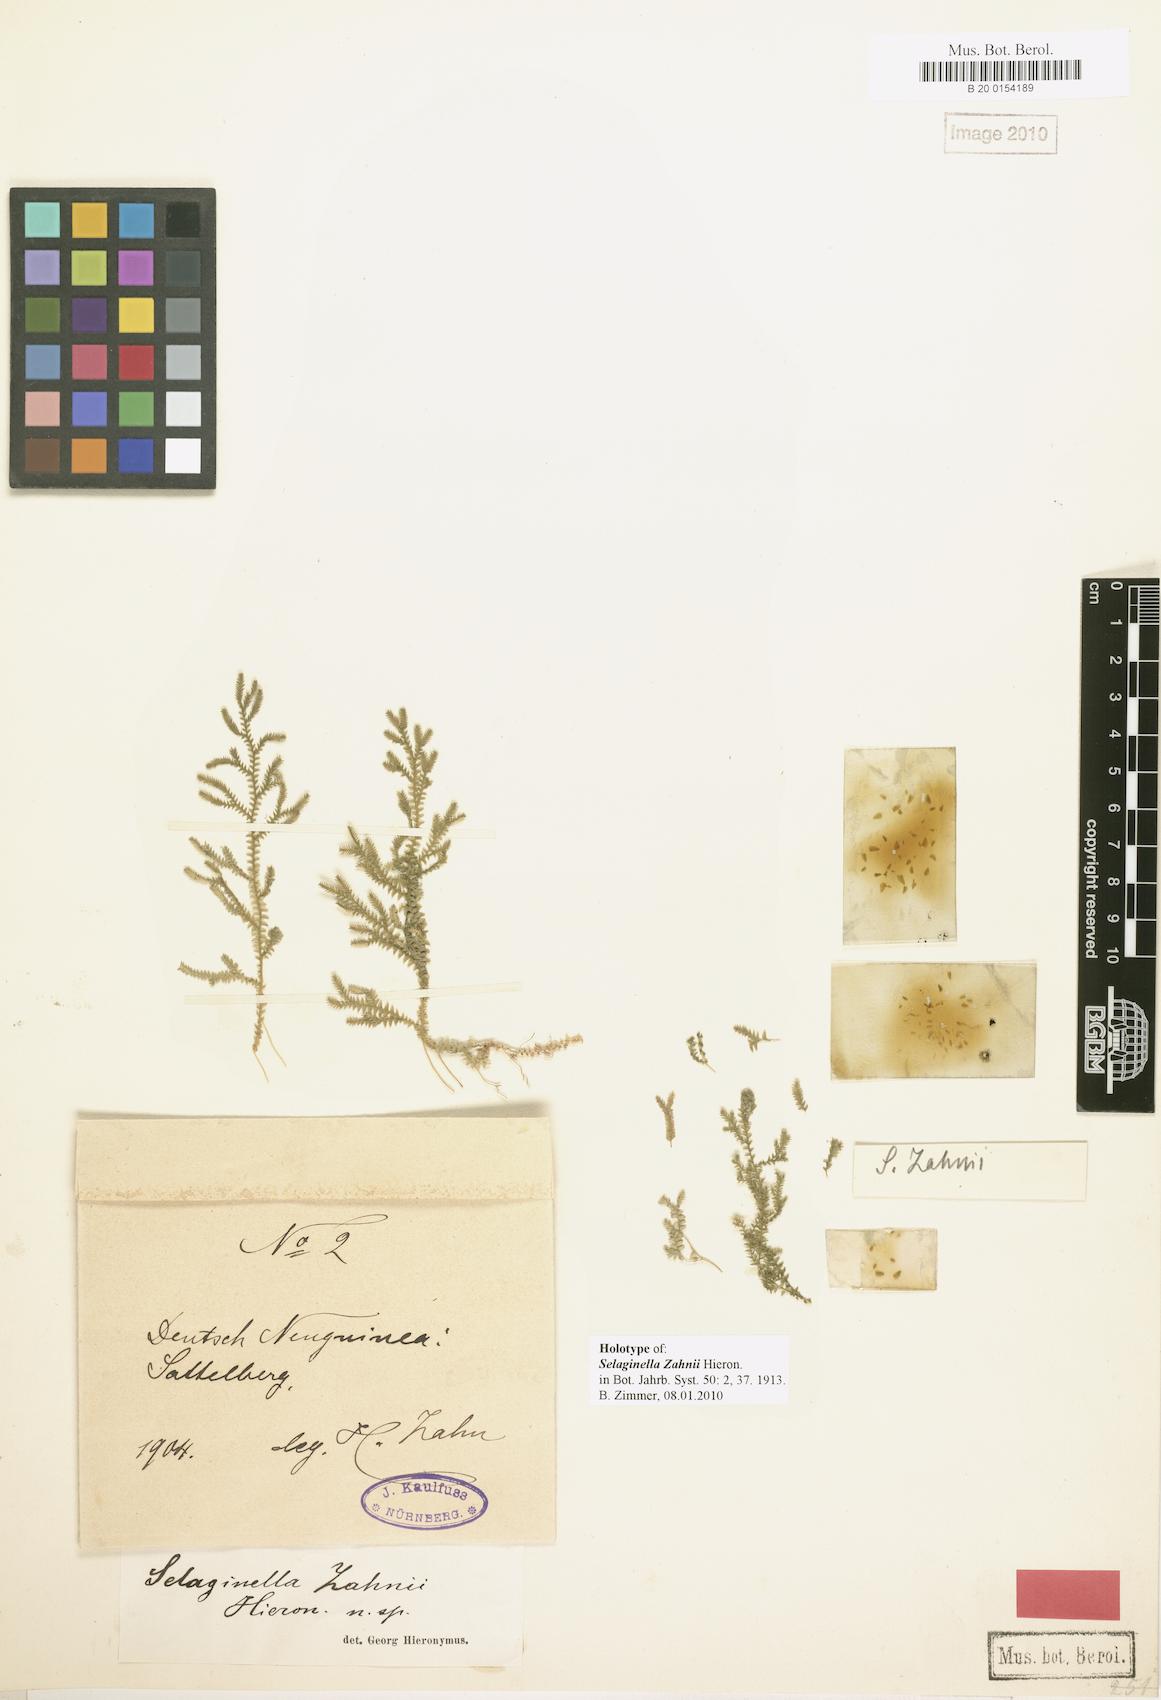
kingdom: Plantae
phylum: Tracheophyta
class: Lycopodiopsida
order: Selaginellales
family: Selaginellaceae
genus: Selaginella
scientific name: Selaginella zahnii
